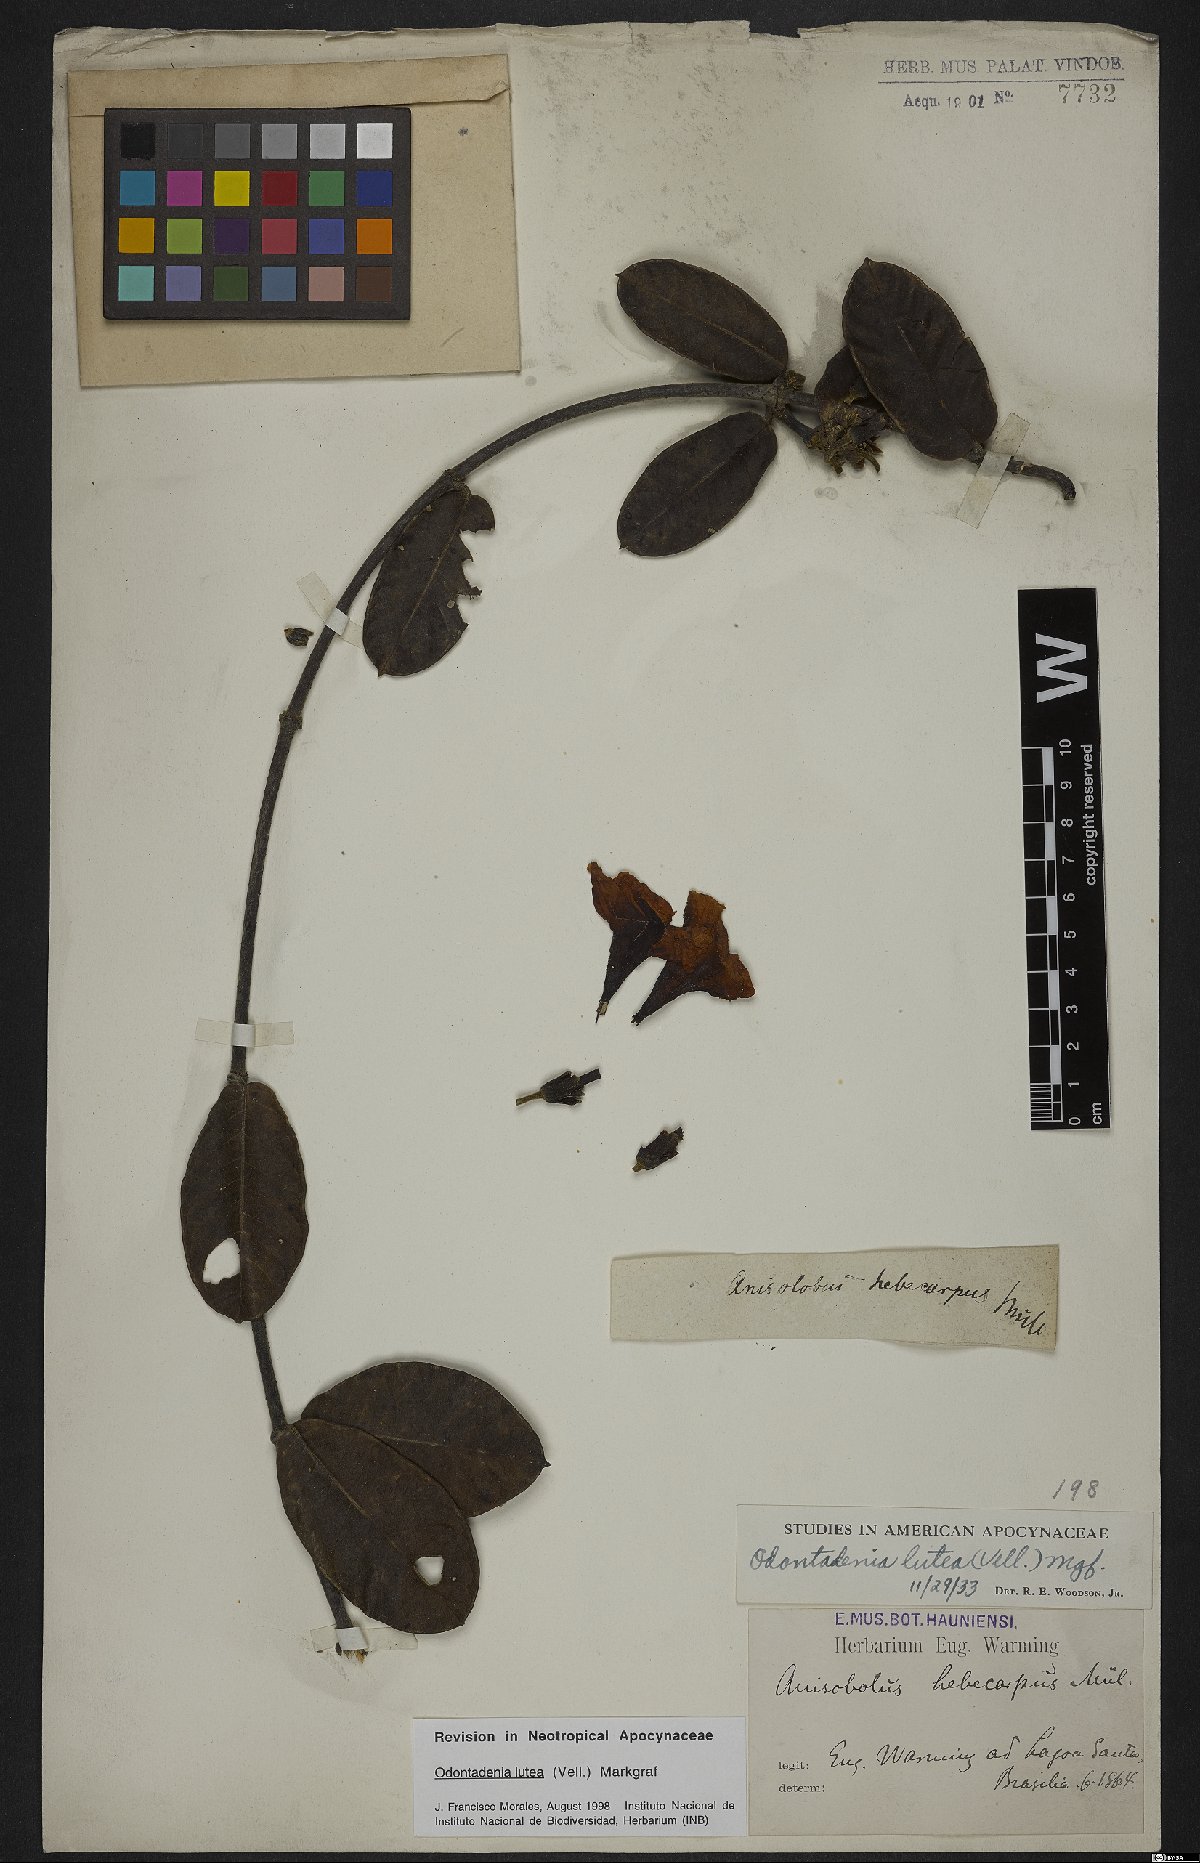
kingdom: Plantae
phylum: Tracheophyta
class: Magnoliopsida
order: Gentianales
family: Apocynaceae
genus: Odontadenia
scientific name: Odontadenia lutea
